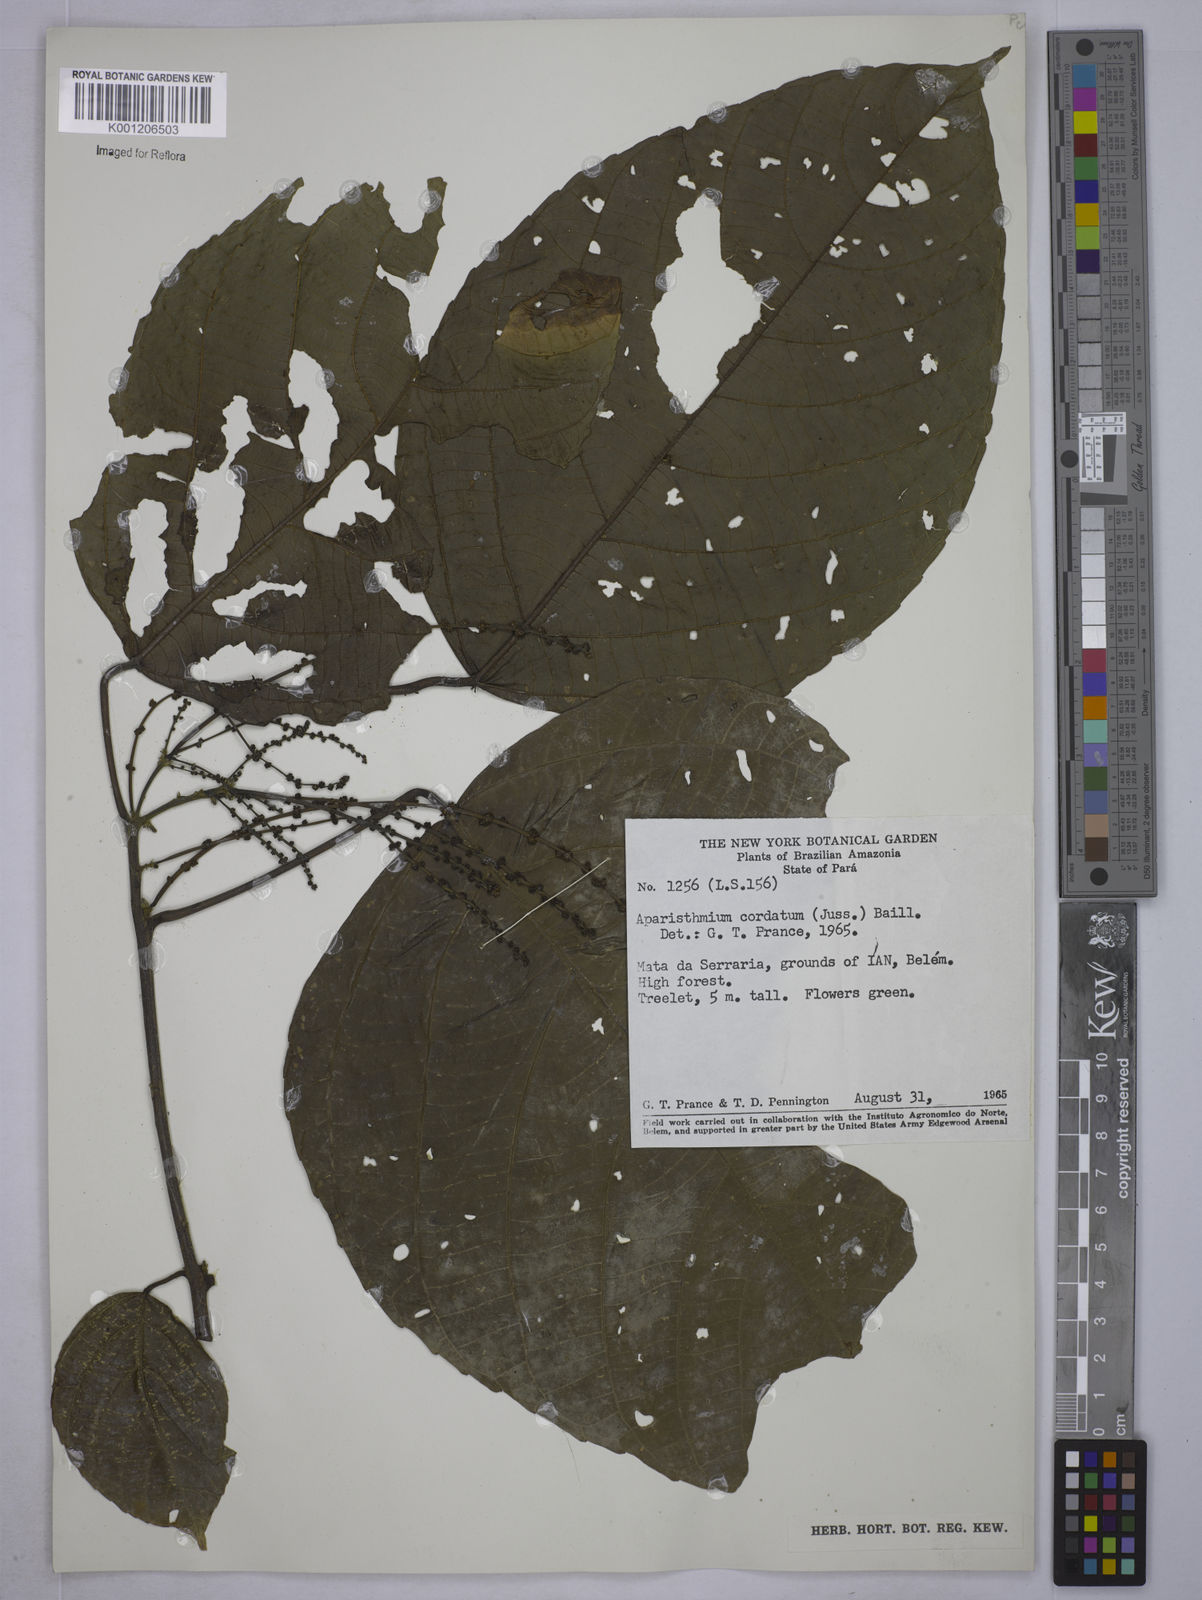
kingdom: Plantae
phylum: Tracheophyta
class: Magnoliopsida
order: Malpighiales
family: Euphorbiaceae
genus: Aparisthmium
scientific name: Aparisthmium cordatum
